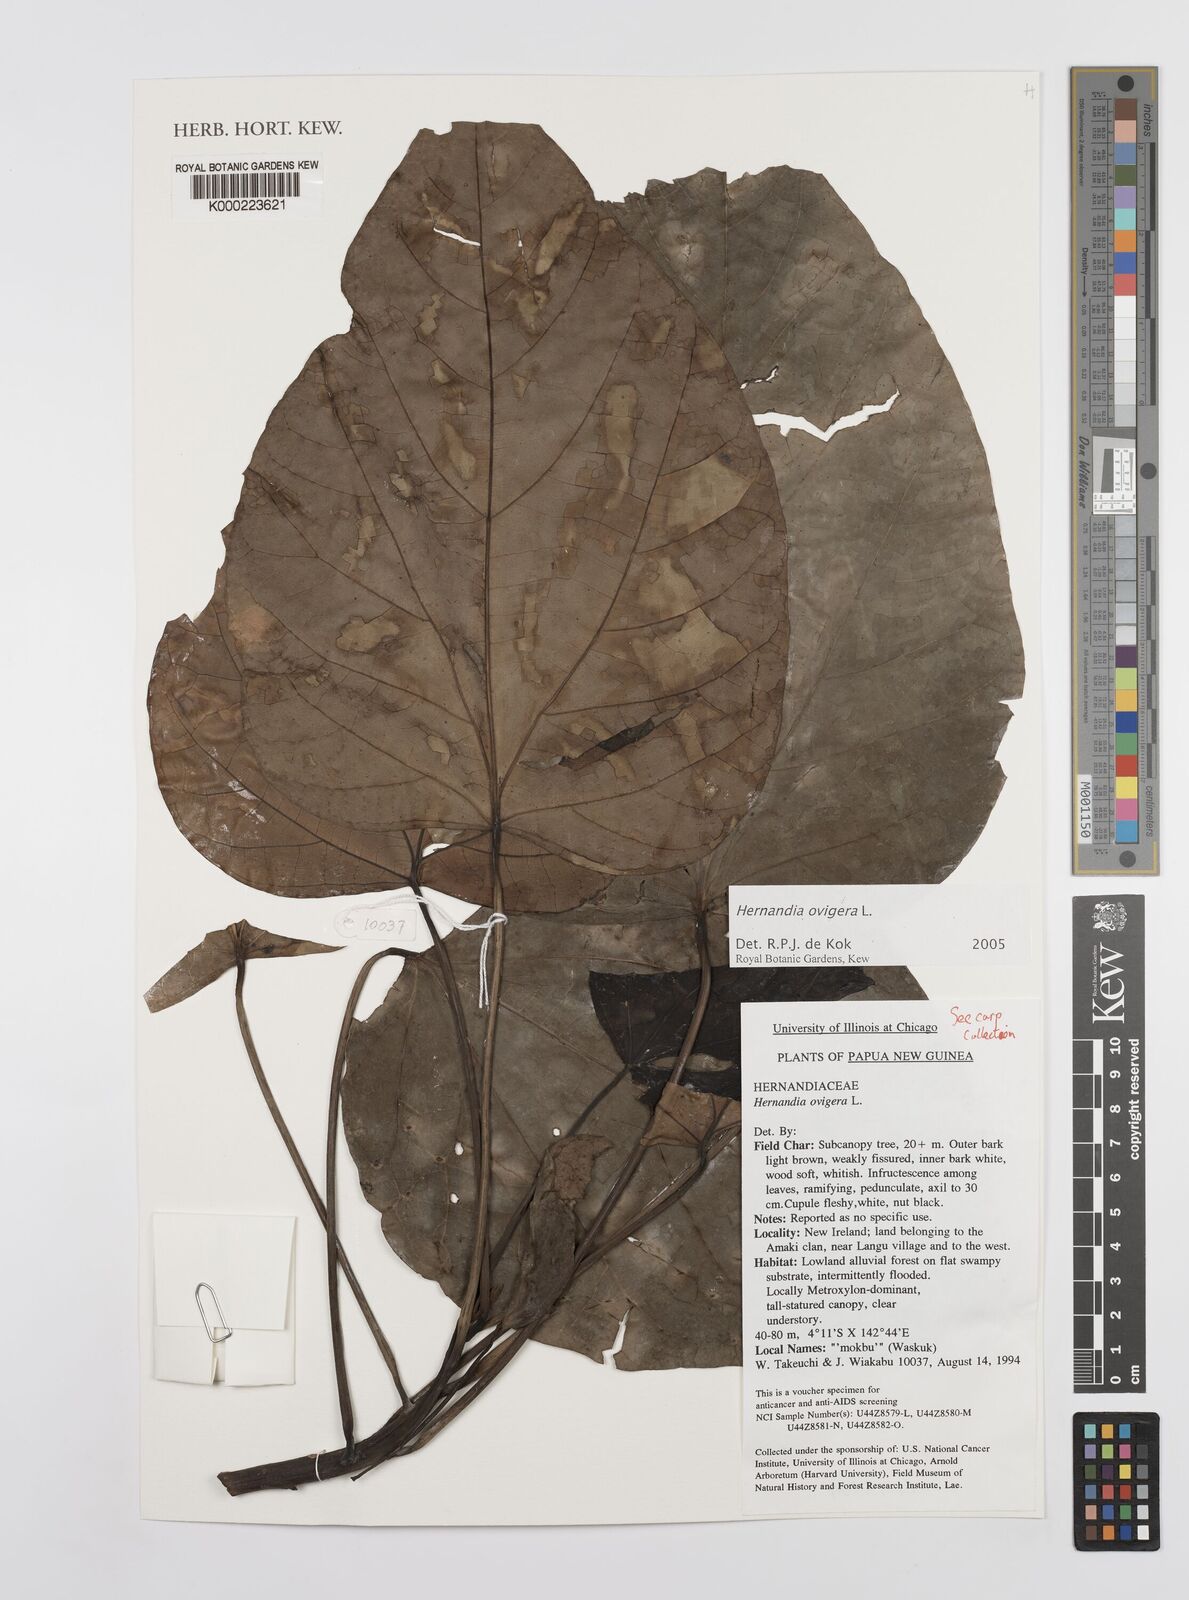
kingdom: Plantae
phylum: Tracheophyta
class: Magnoliopsida
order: Laurales
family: Hernandiaceae
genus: Hernandia
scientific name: Hernandia ovigera
